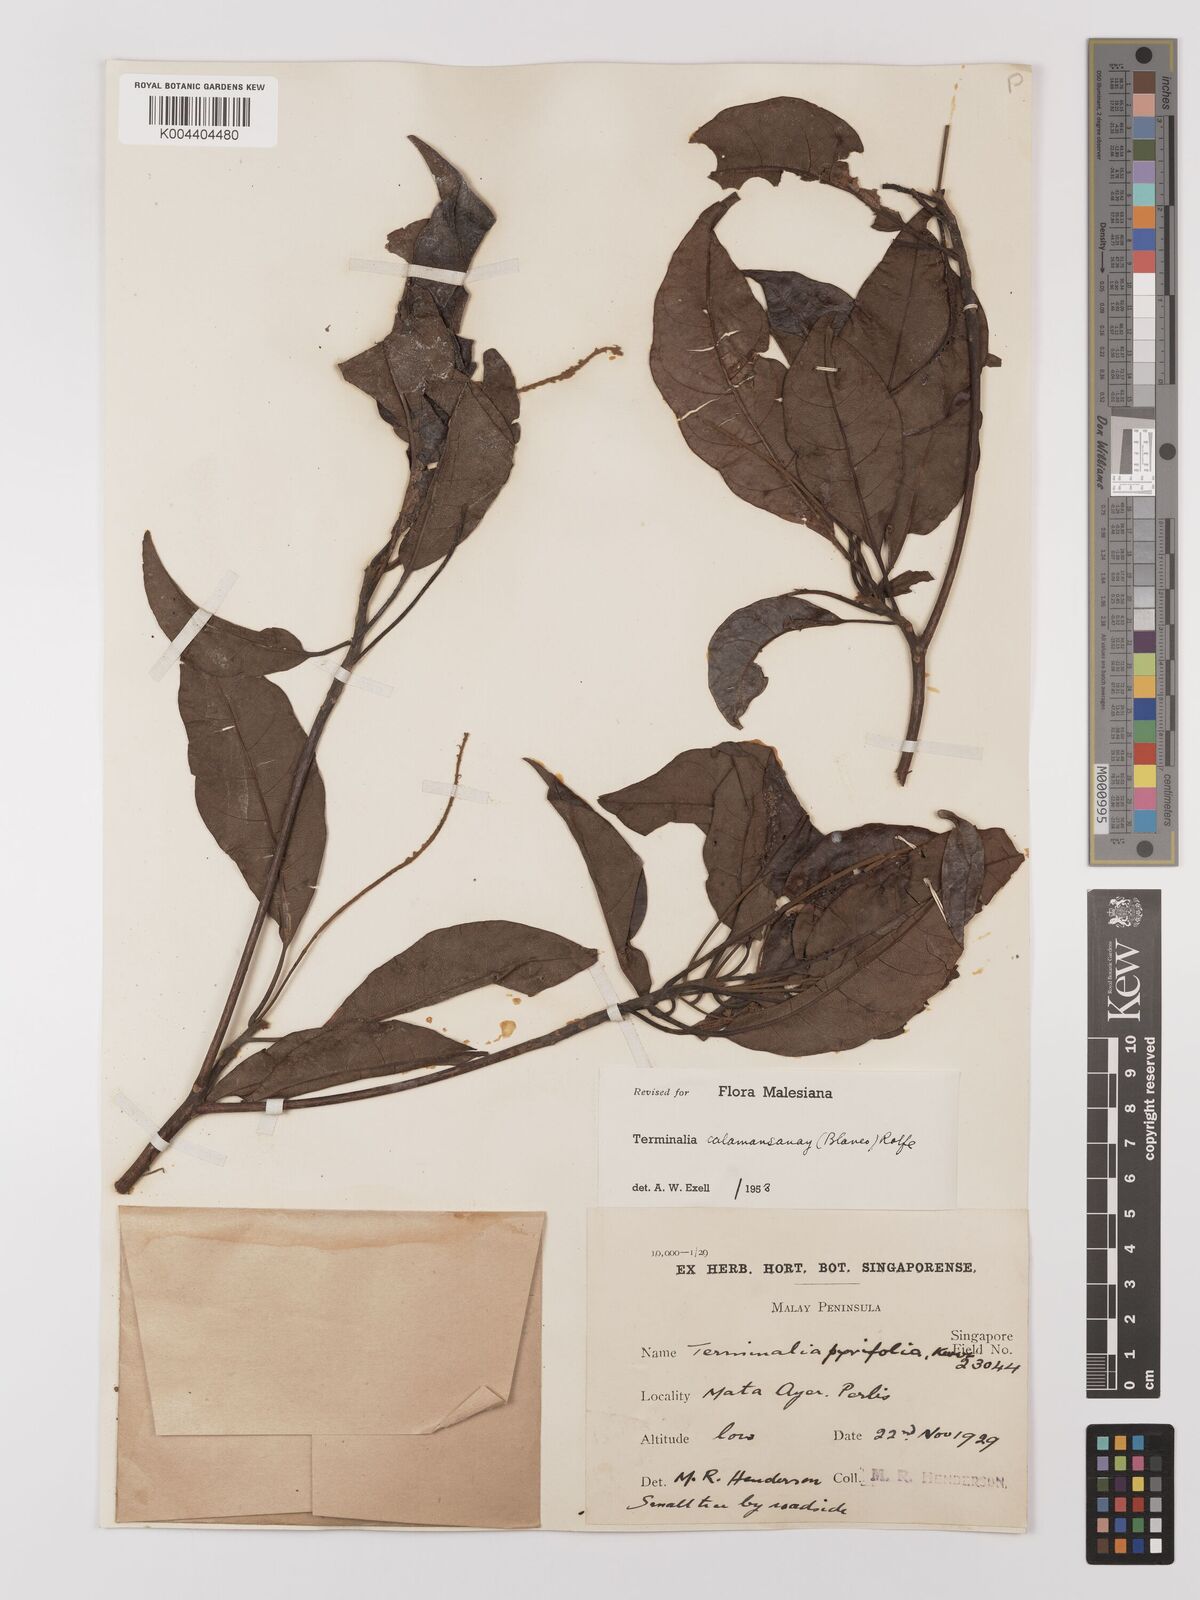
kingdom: Plantae
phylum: Tracheophyta
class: Magnoliopsida
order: Myrtales
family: Combretaceae
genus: Terminalia
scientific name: Terminalia calamansanai
